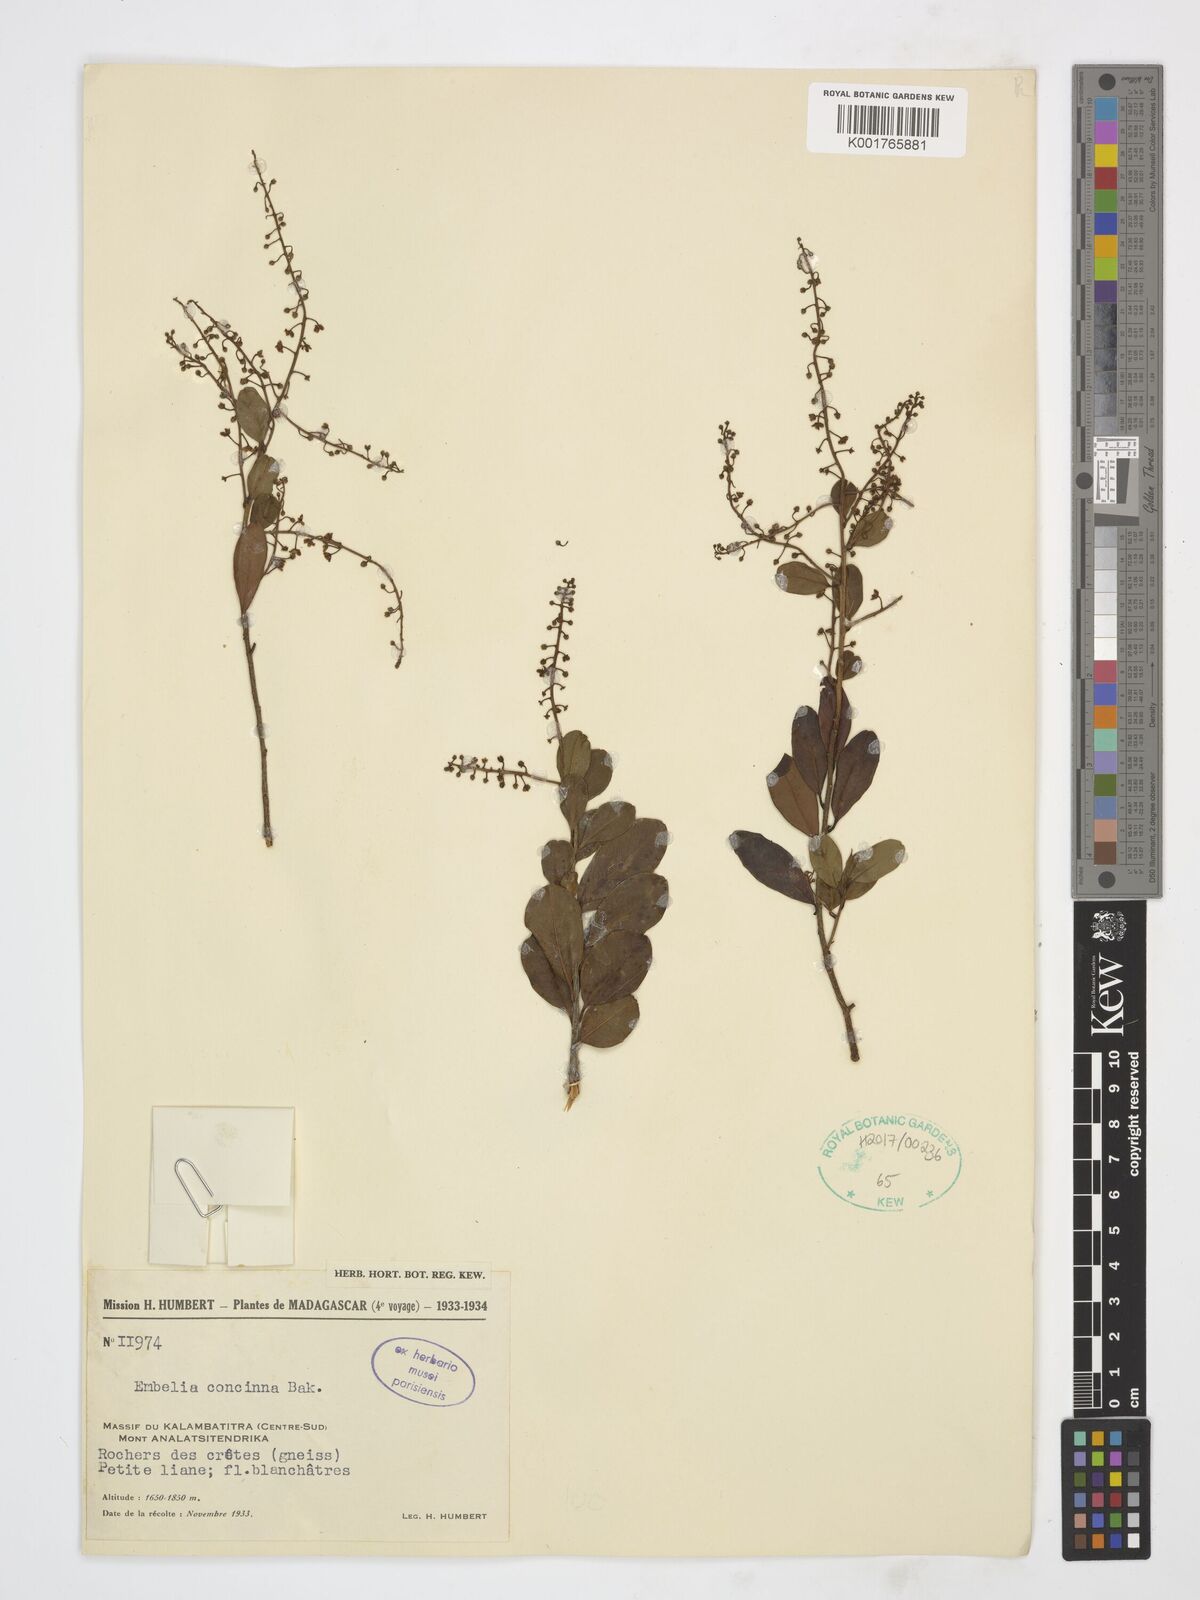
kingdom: Plantae
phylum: Tracheophyta
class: Magnoliopsida
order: Ericales
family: Primulaceae
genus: Embelia
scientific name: Embelia concinna
